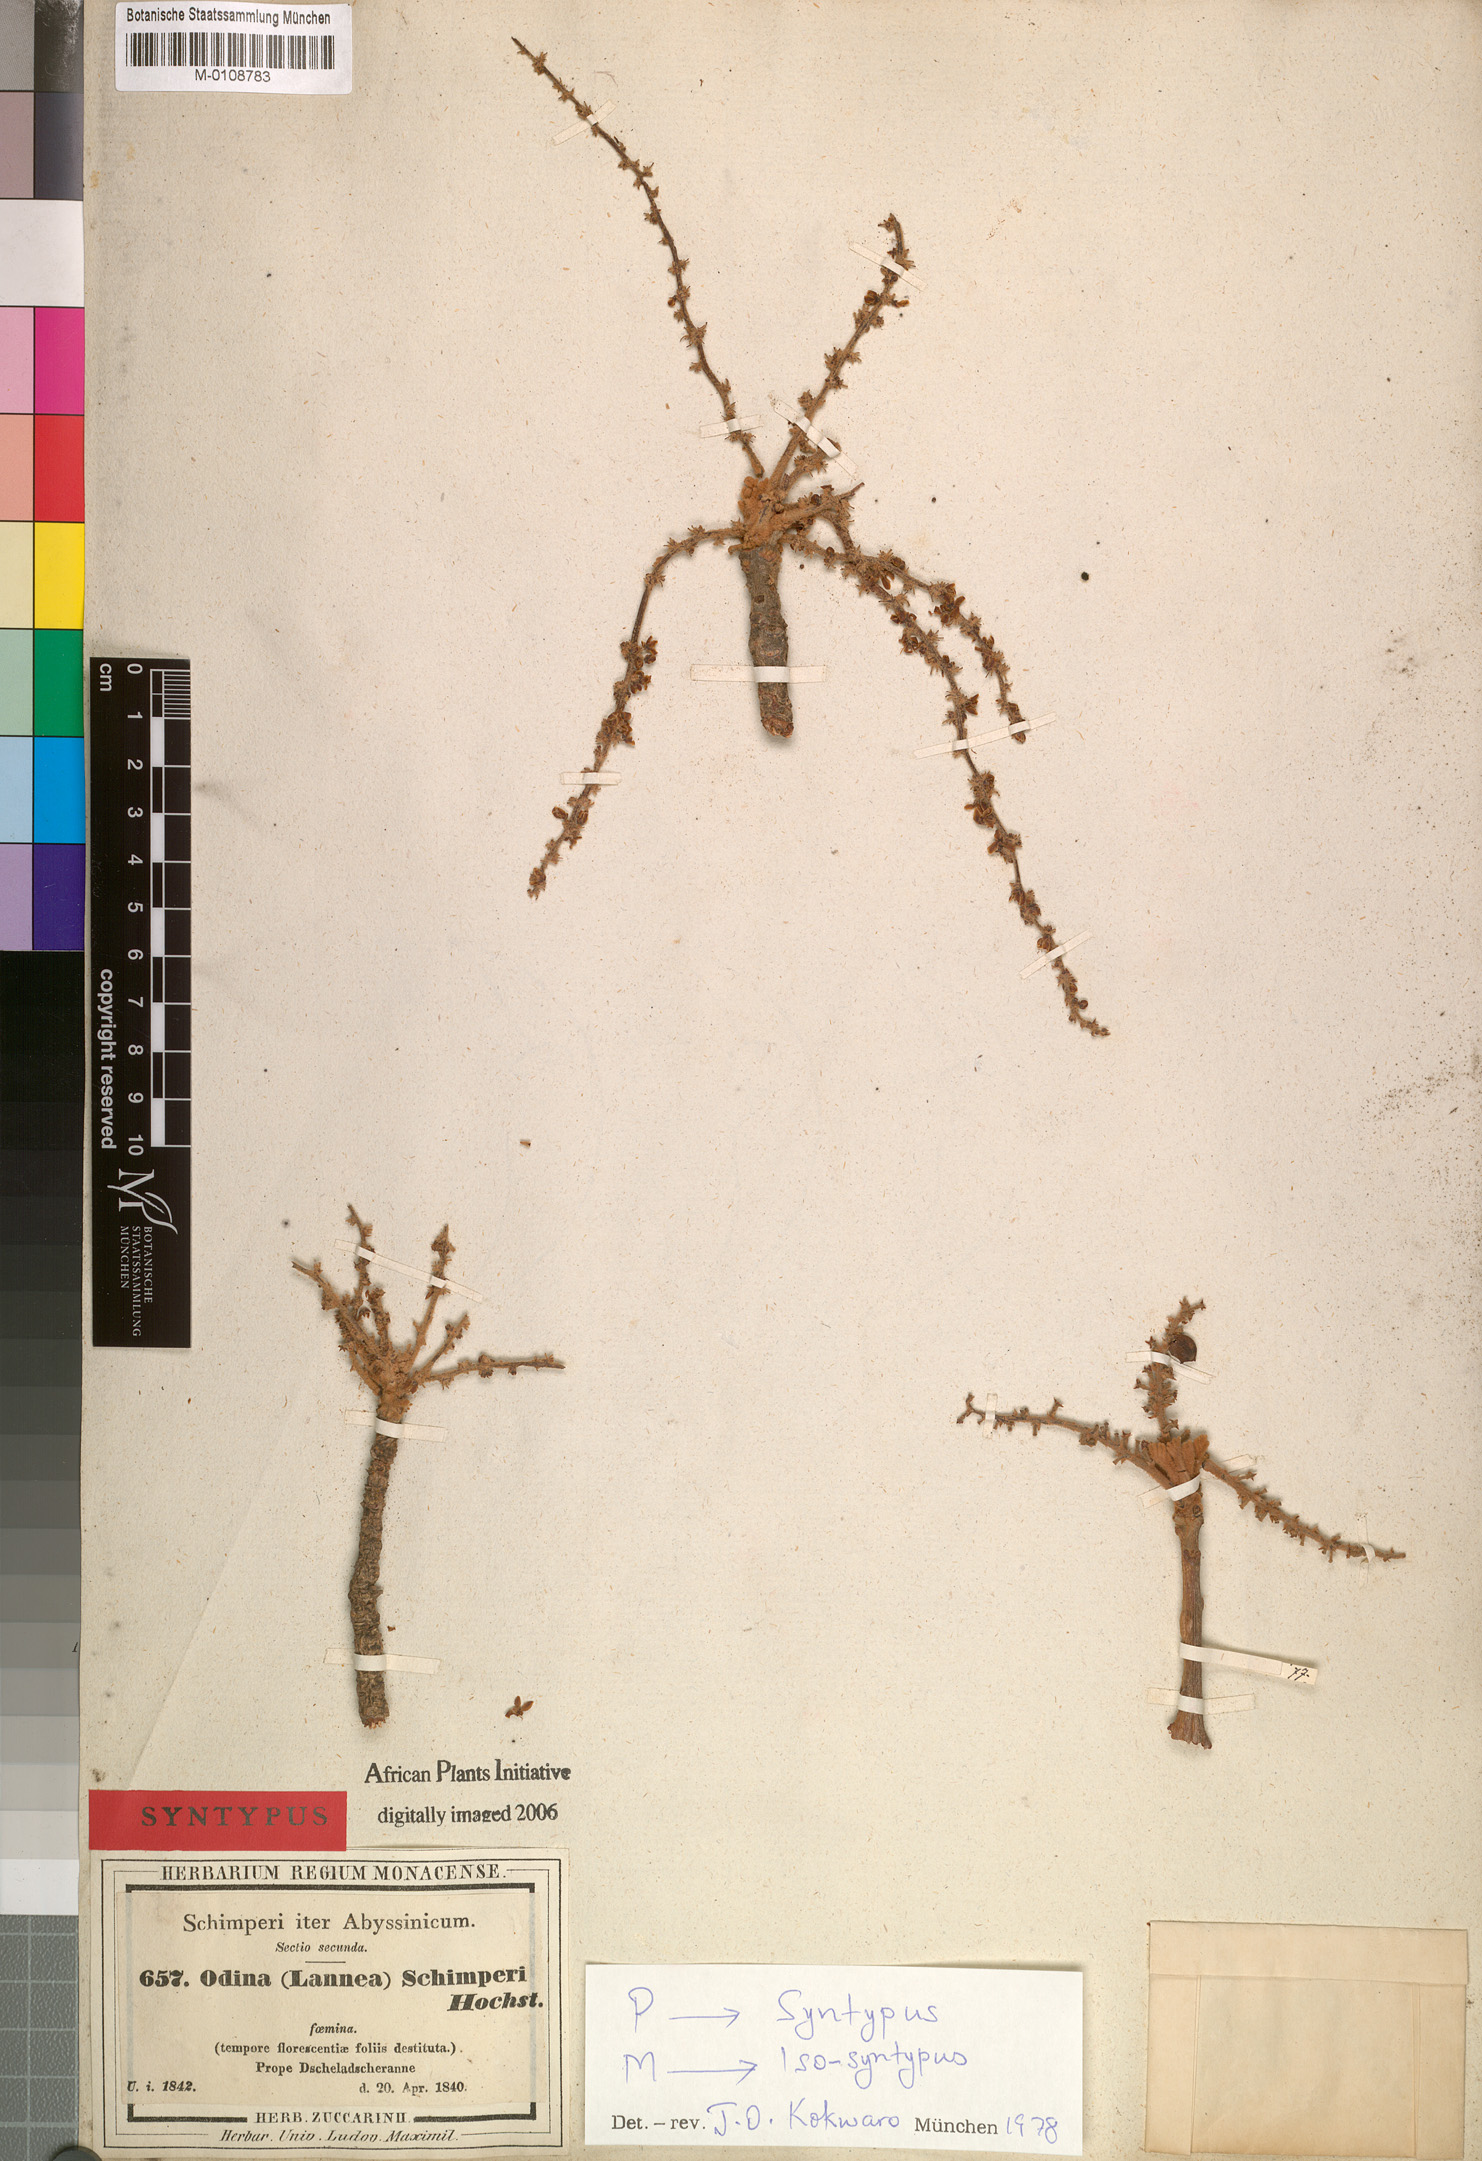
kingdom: Plantae
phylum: Tracheophyta
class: Magnoliopsida
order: Sapindales
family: Anacardiaceae
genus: Lannea
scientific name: Lannea schimperi
